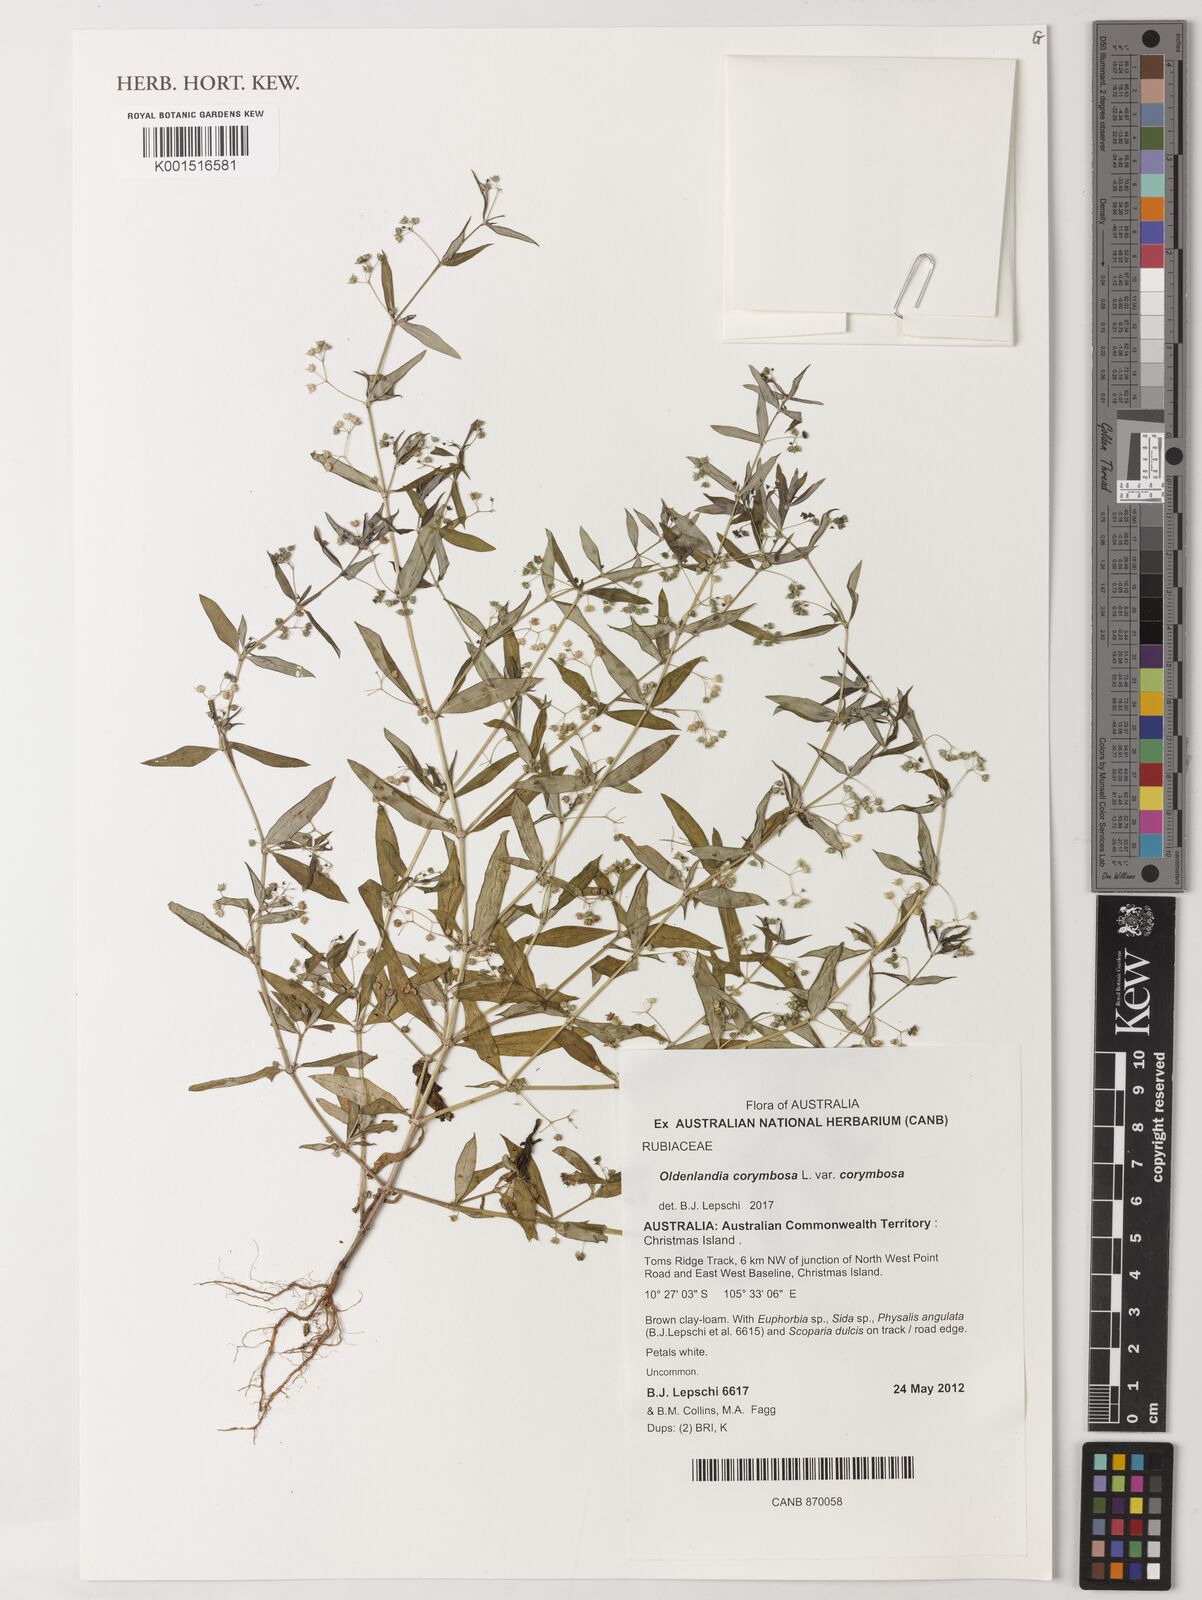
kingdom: Plantae
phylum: Tracheophyta
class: Magnoliopsida
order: Gentianales
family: Rubiaceae
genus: Oldenlandia
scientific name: Oldenlandia corymbosa
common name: Flat-top mille graines
